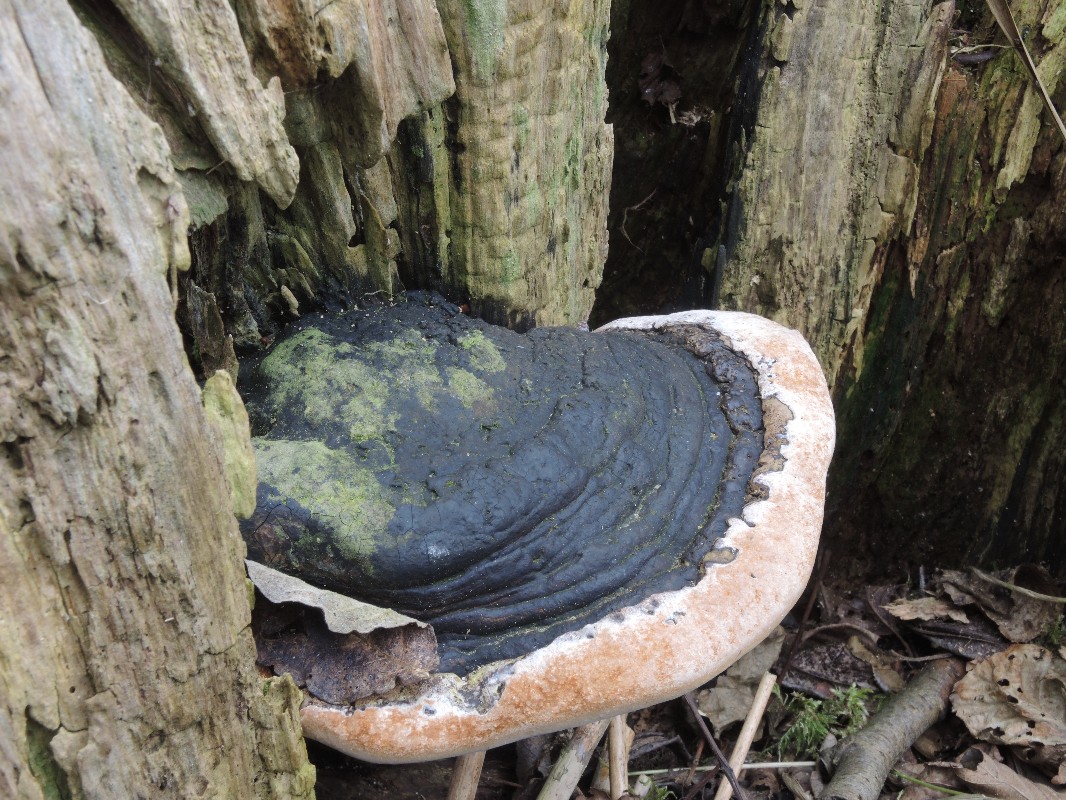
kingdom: Fungi
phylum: Basidiomycota
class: Agaricomycetes
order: Hymenochaetales
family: Hymenochaetaceae
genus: Phellinus
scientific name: Phellinus igniarius
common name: almindelig ildporesvamp
